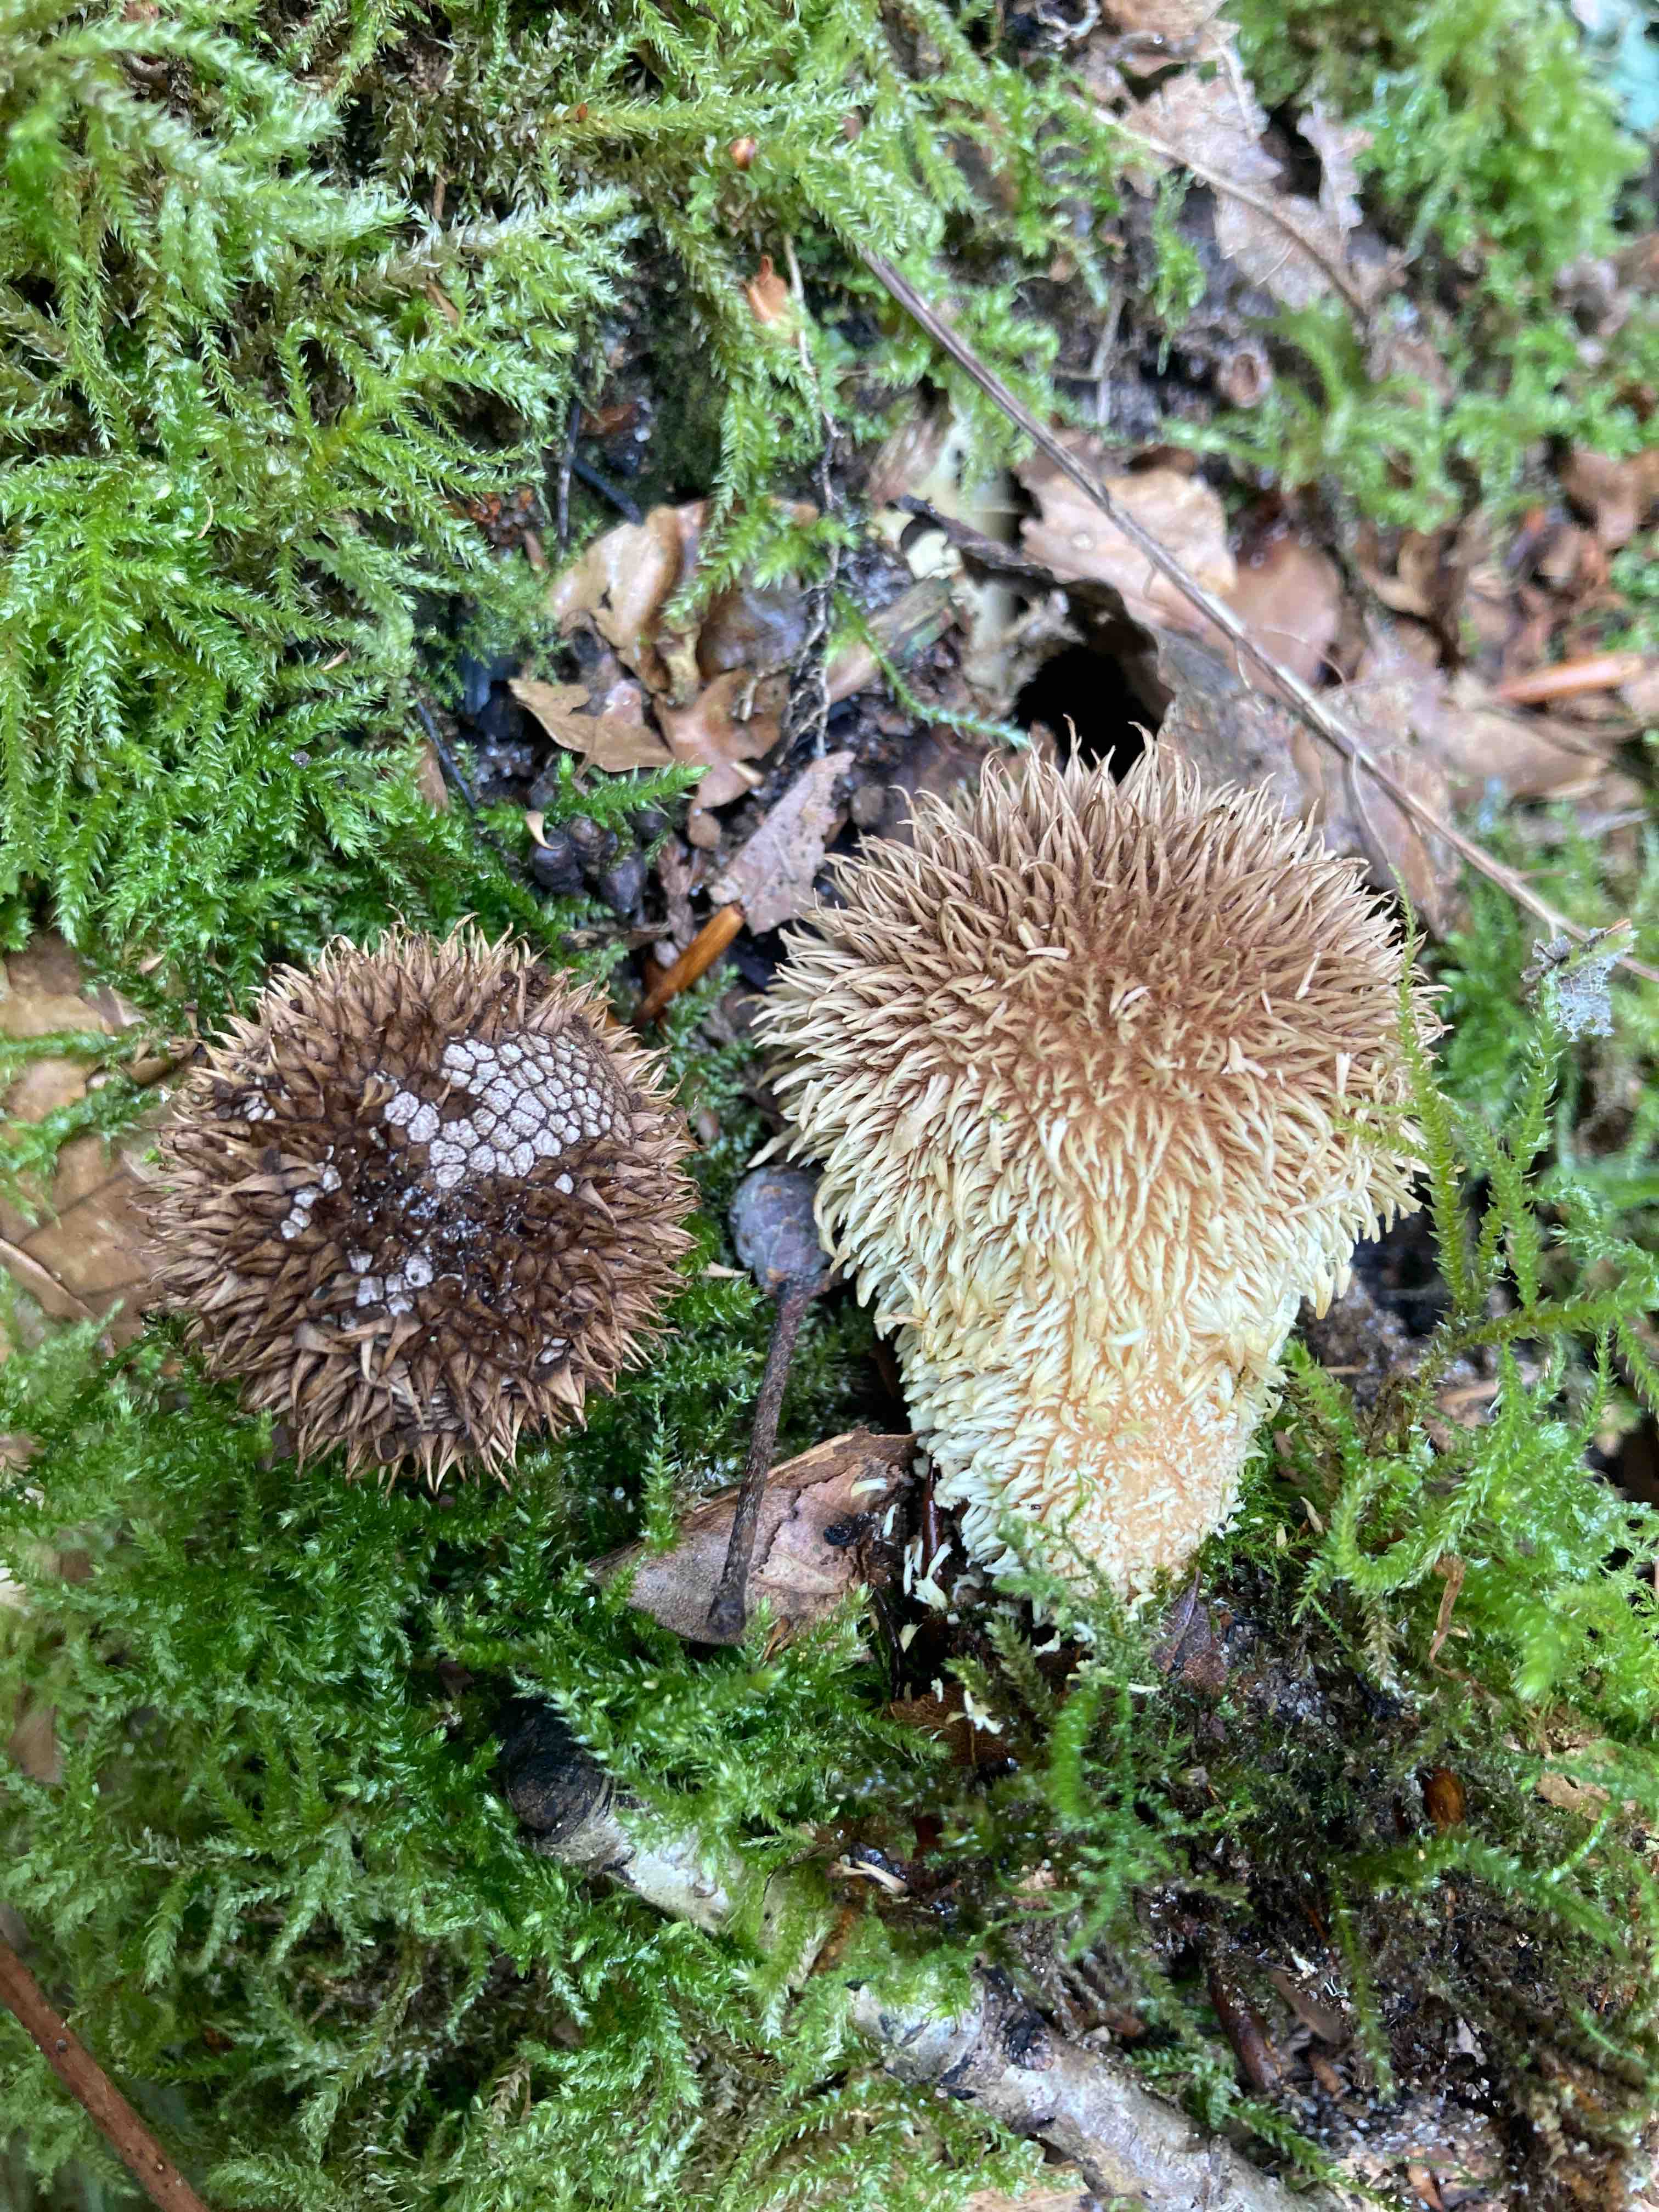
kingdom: Fungi
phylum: Basidiomycota
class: Agaricomycetes
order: Agaricales
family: Lycoperdaceae
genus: Lycoperdon
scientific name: Lycoperdon echinatum
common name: pindsvine-støvbold
